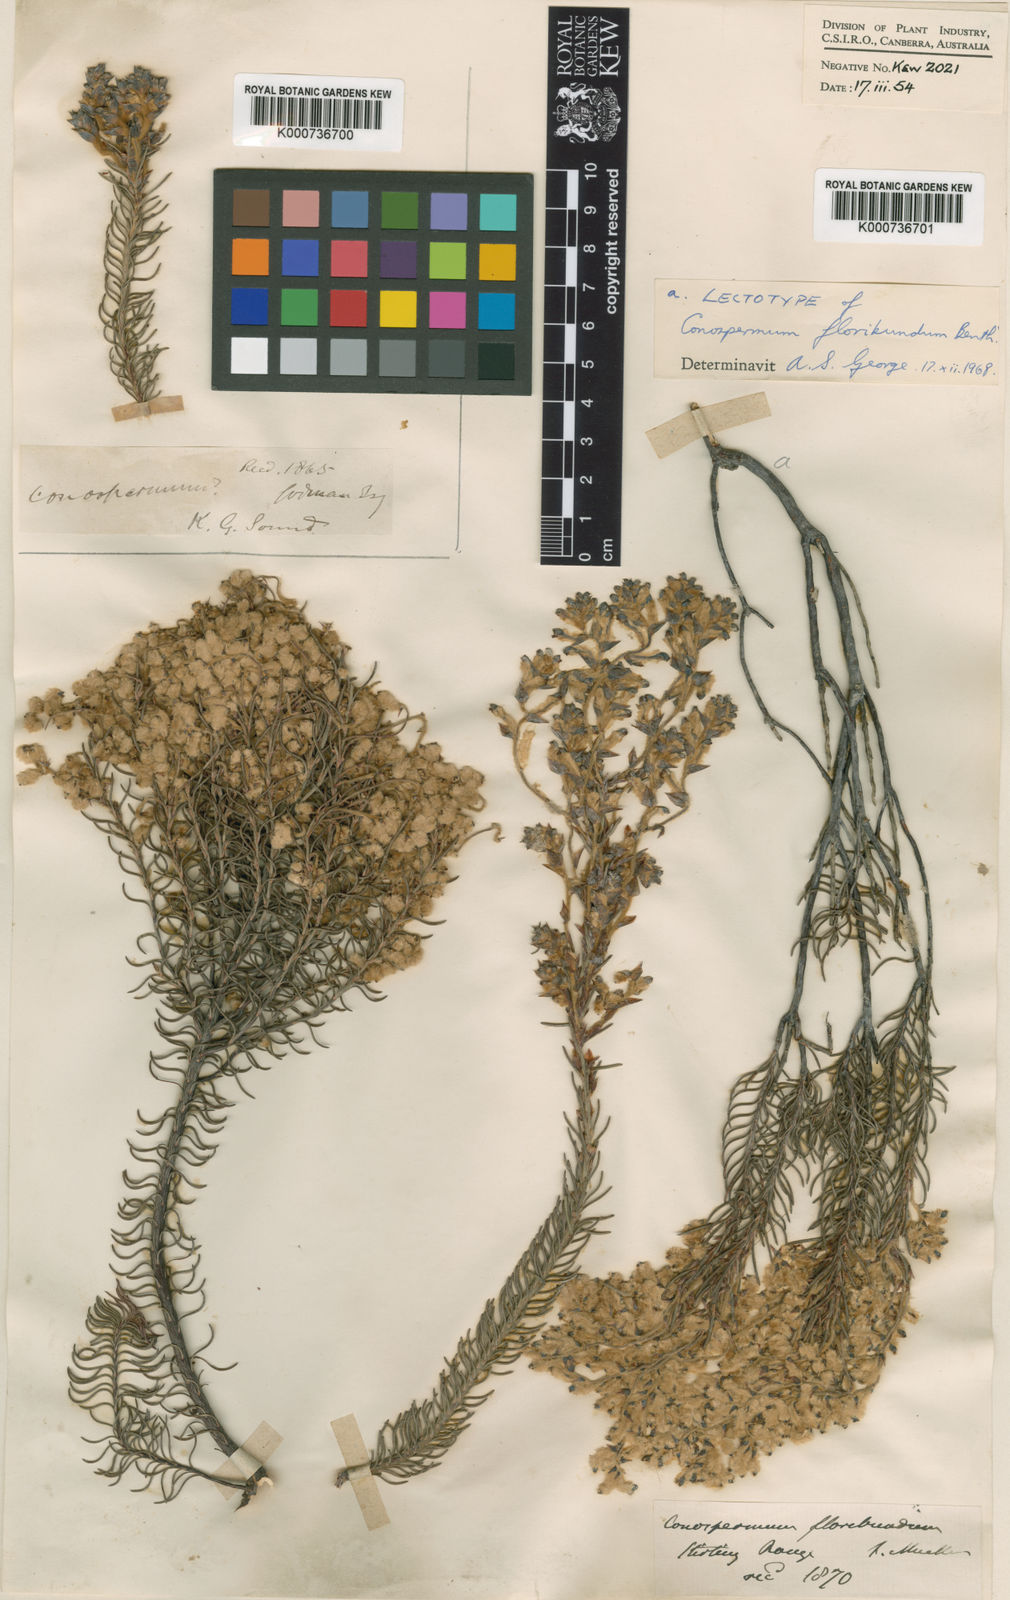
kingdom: Plantae
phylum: Tracheophyta
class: Magnoliopsida
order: Proteales
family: Proteaceae
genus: Conospermum
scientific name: Conospermum floribundum
